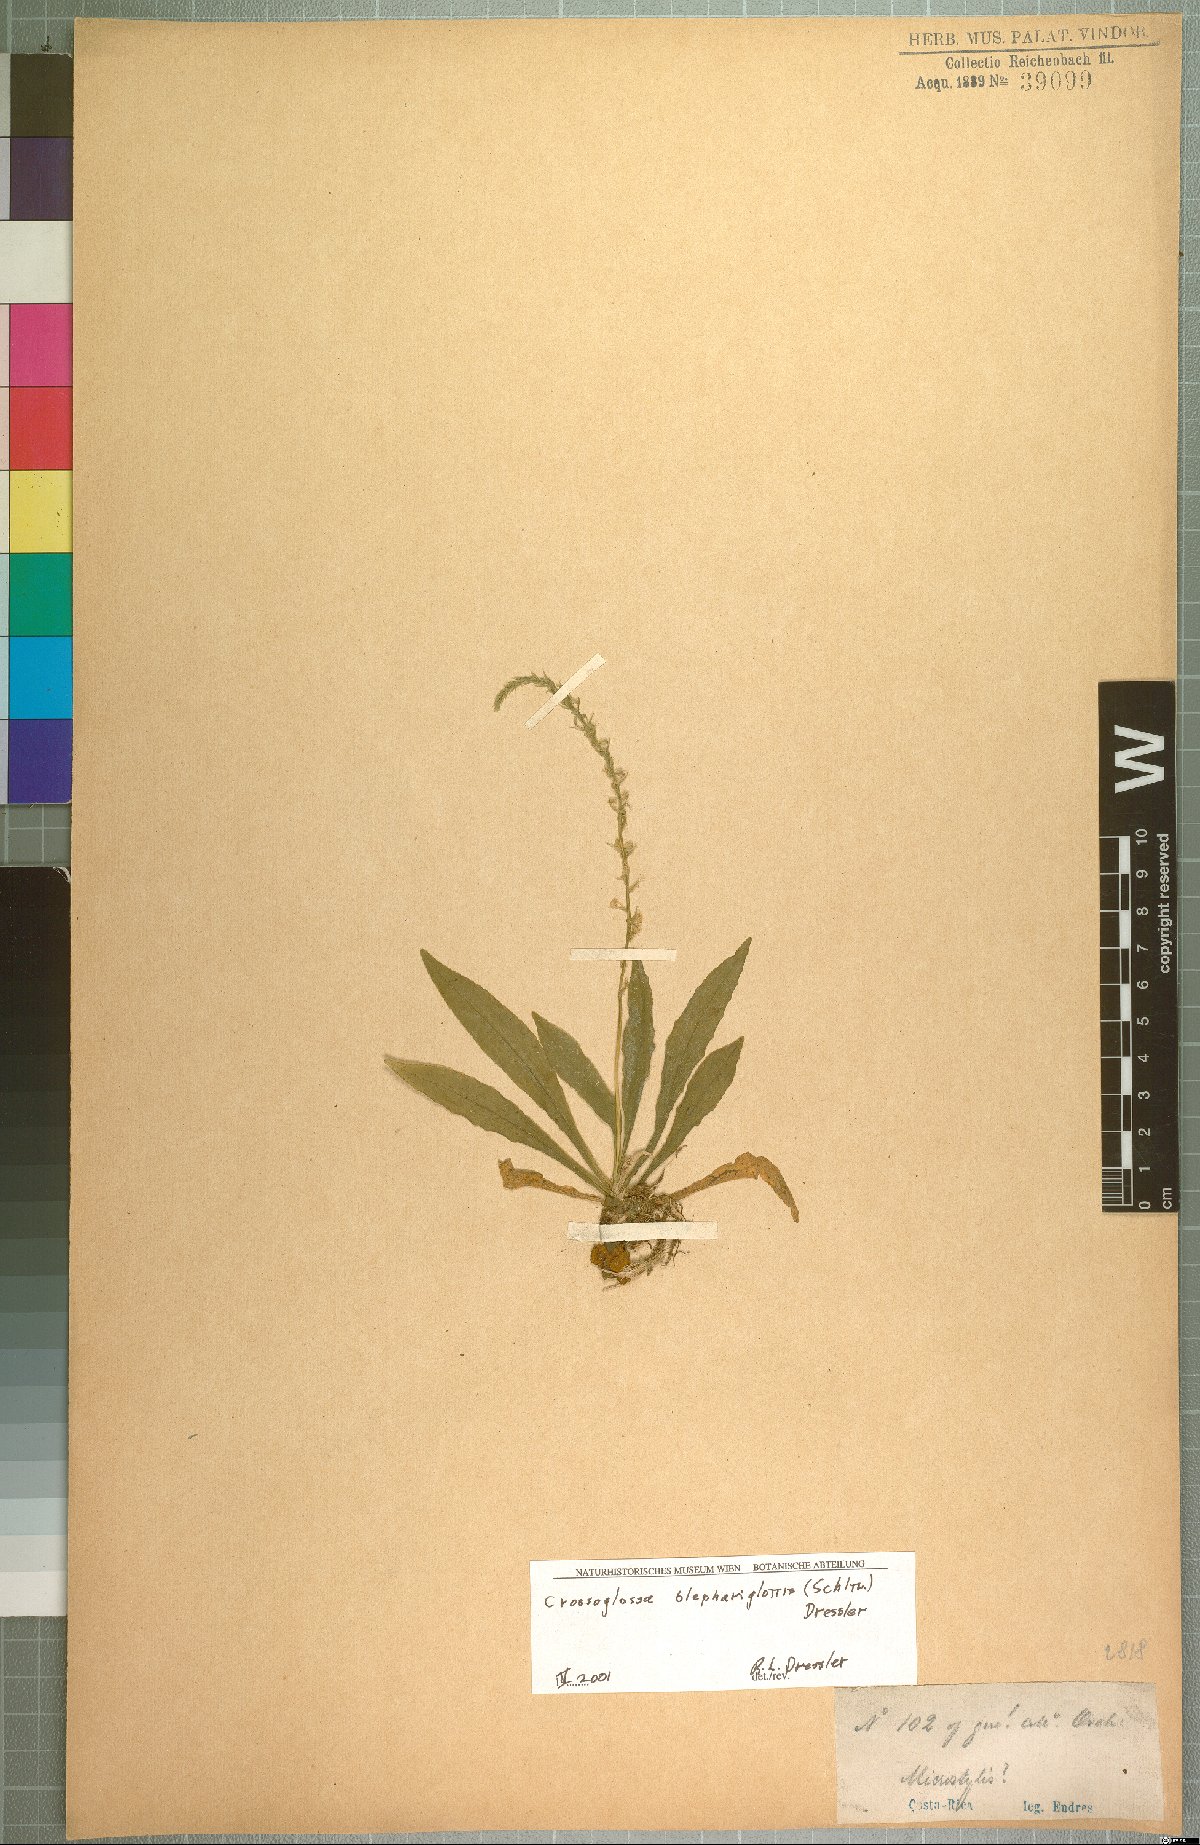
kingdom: Plantae
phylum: Tracheophyta
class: Liliopsida
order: Asparagales
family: Orchidaceae
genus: Crossoglossa
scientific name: Crossoglossa blephariglottis
